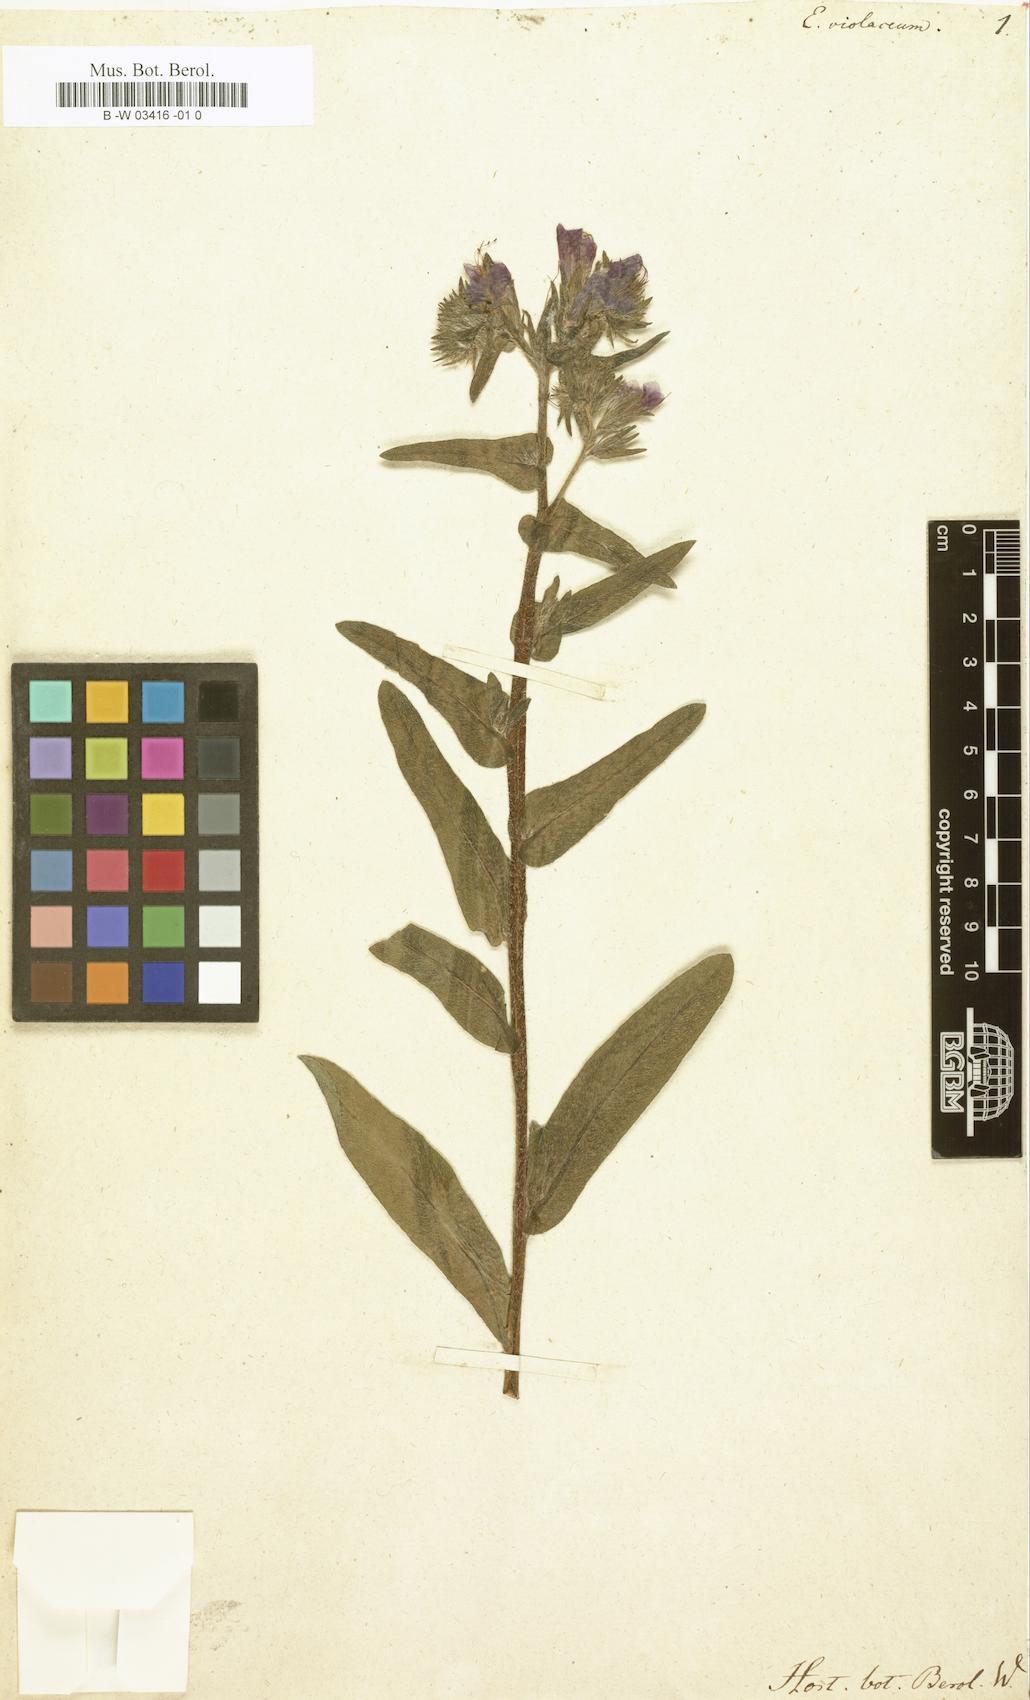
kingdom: Plantae
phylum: Tracheophyta
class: Magnoliopsida
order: Boraginales
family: Boraginaceae
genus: Echium
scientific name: Echium plantagineum
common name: Purple viper's-bugloss
